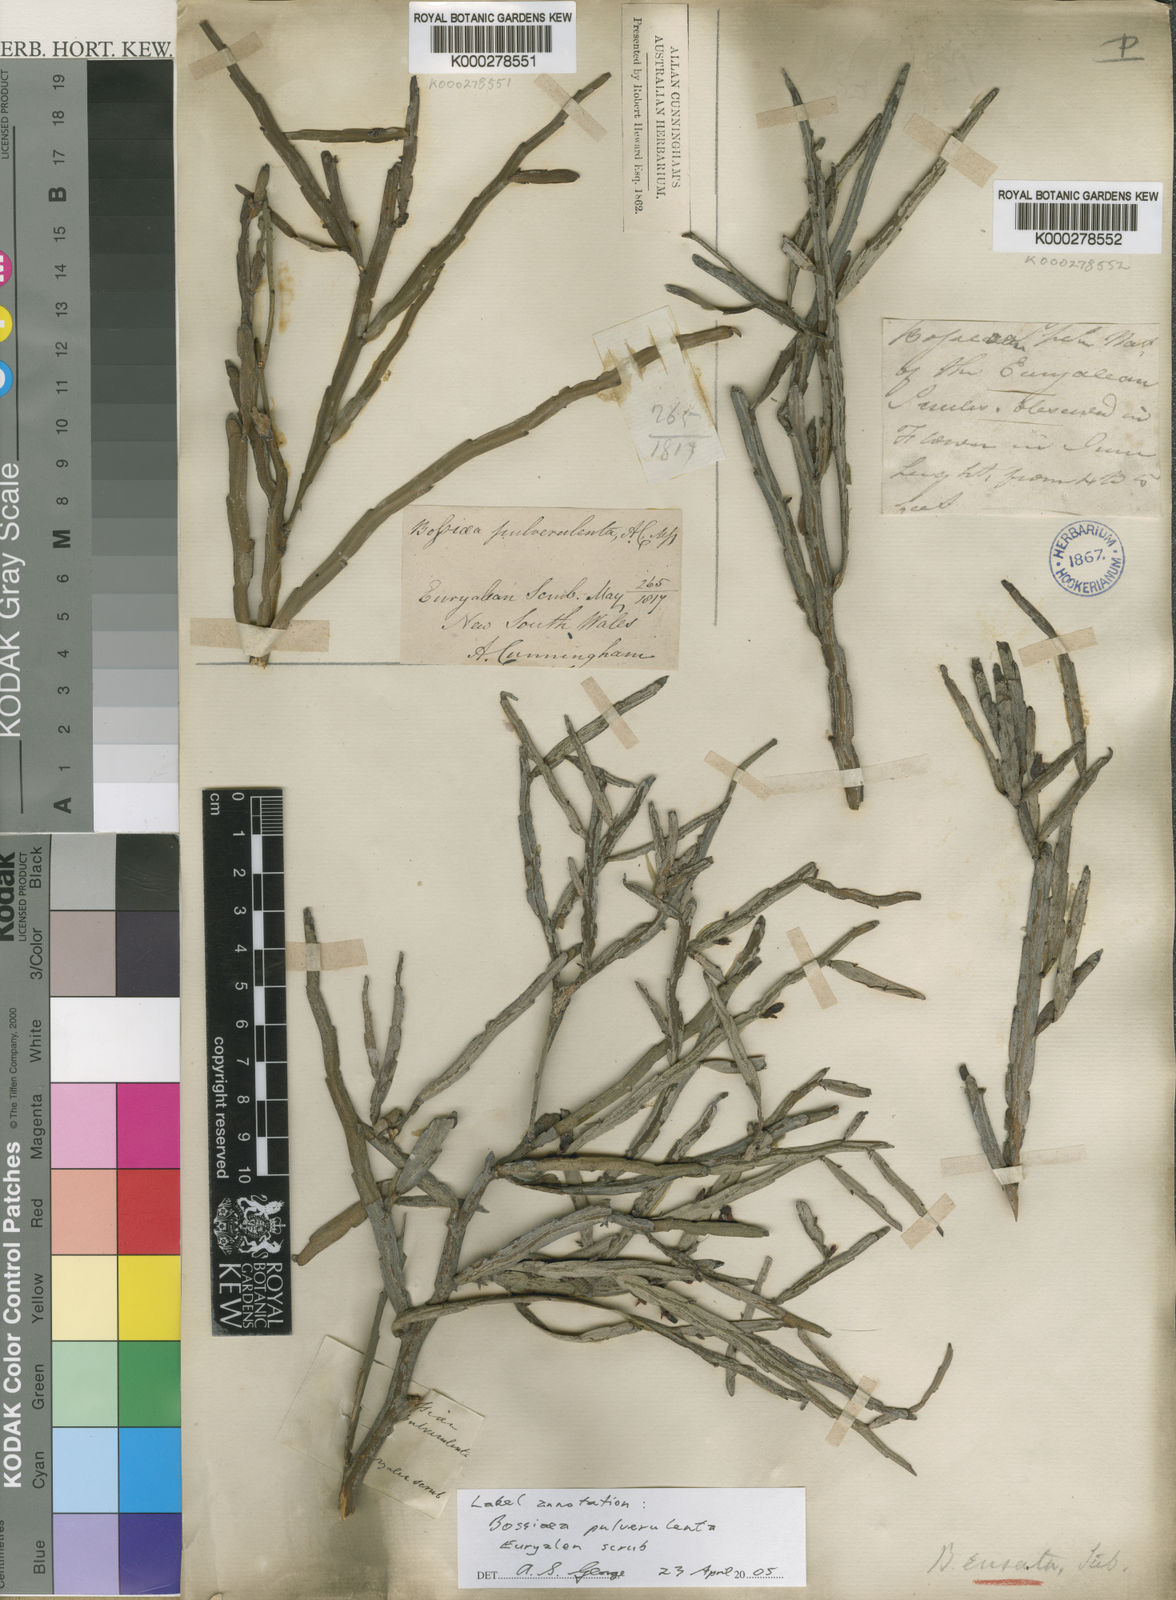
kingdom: Plantae
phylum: Tracheophyta
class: Magnoliopsida
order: Fabales
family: Fabaceae
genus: Bossiaea
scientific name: Bossiaea ensata
